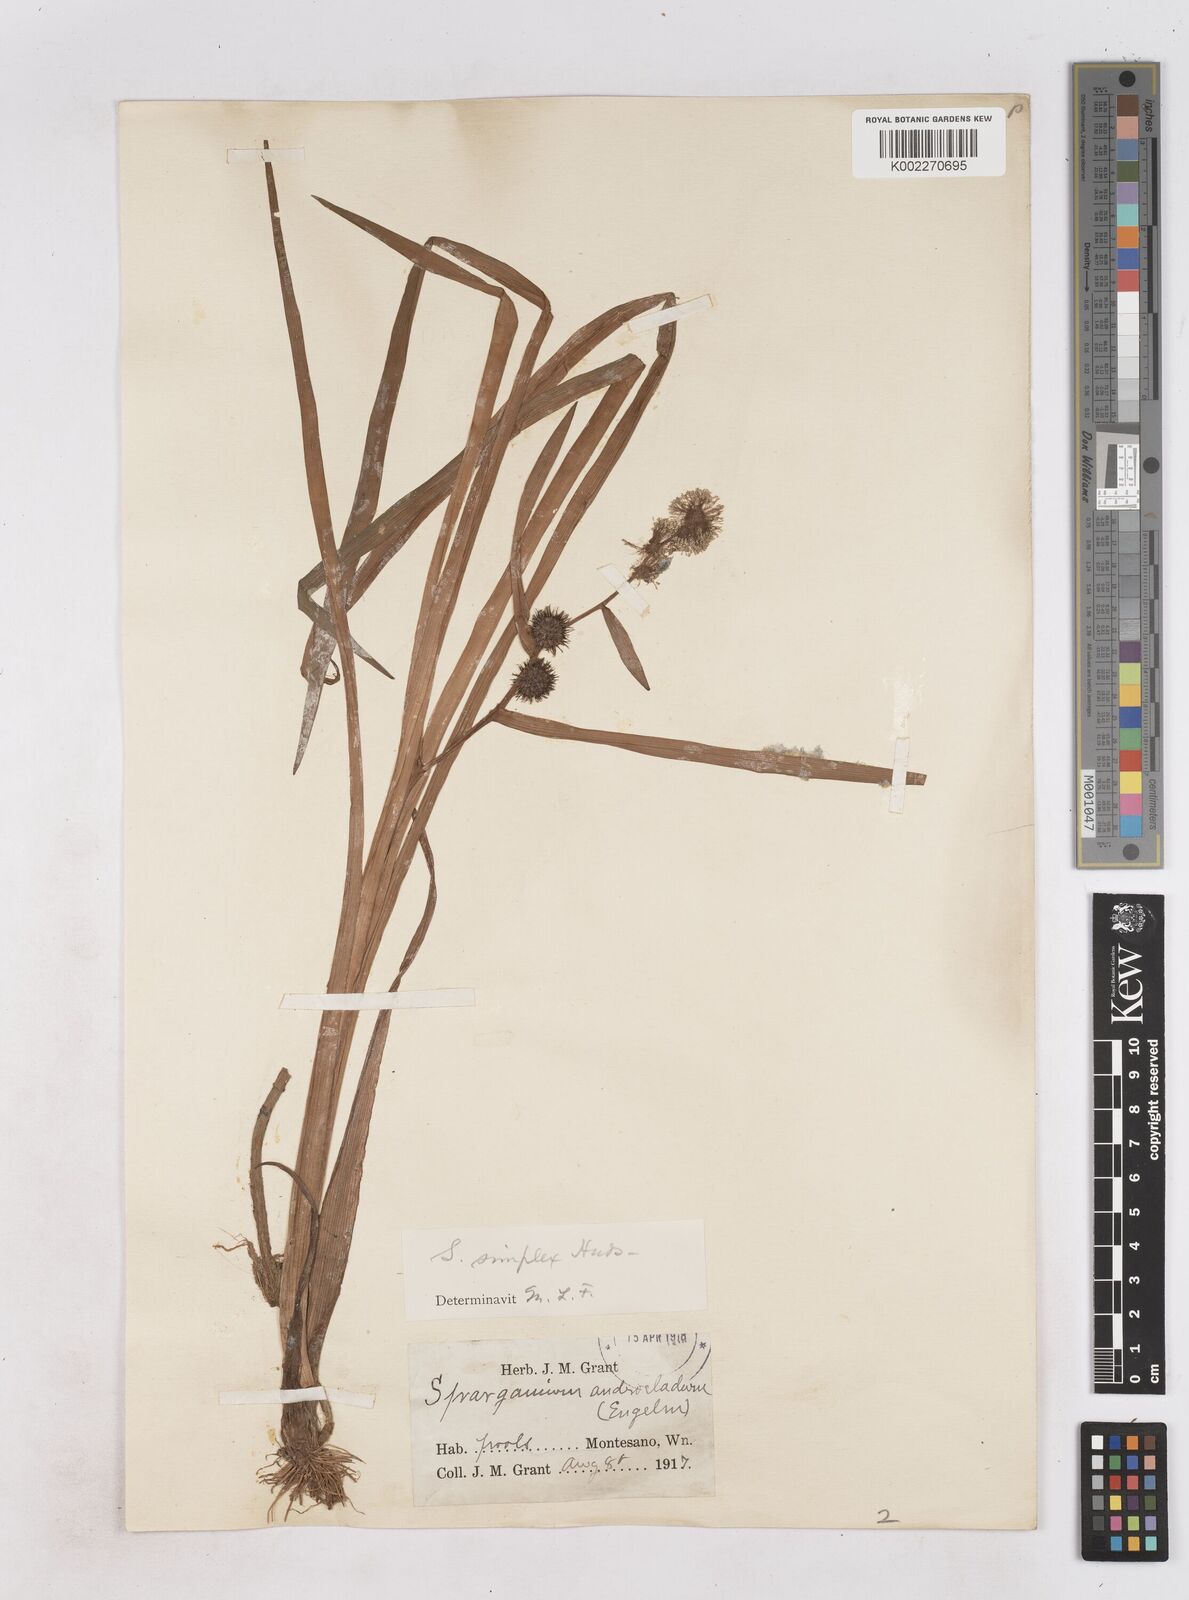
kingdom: Plantae
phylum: Tracheophyta
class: Liliopsida
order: Poales
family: Typhaceae
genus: Sparganium
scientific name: Sparganium emersum
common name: Unbranched bur-reed
